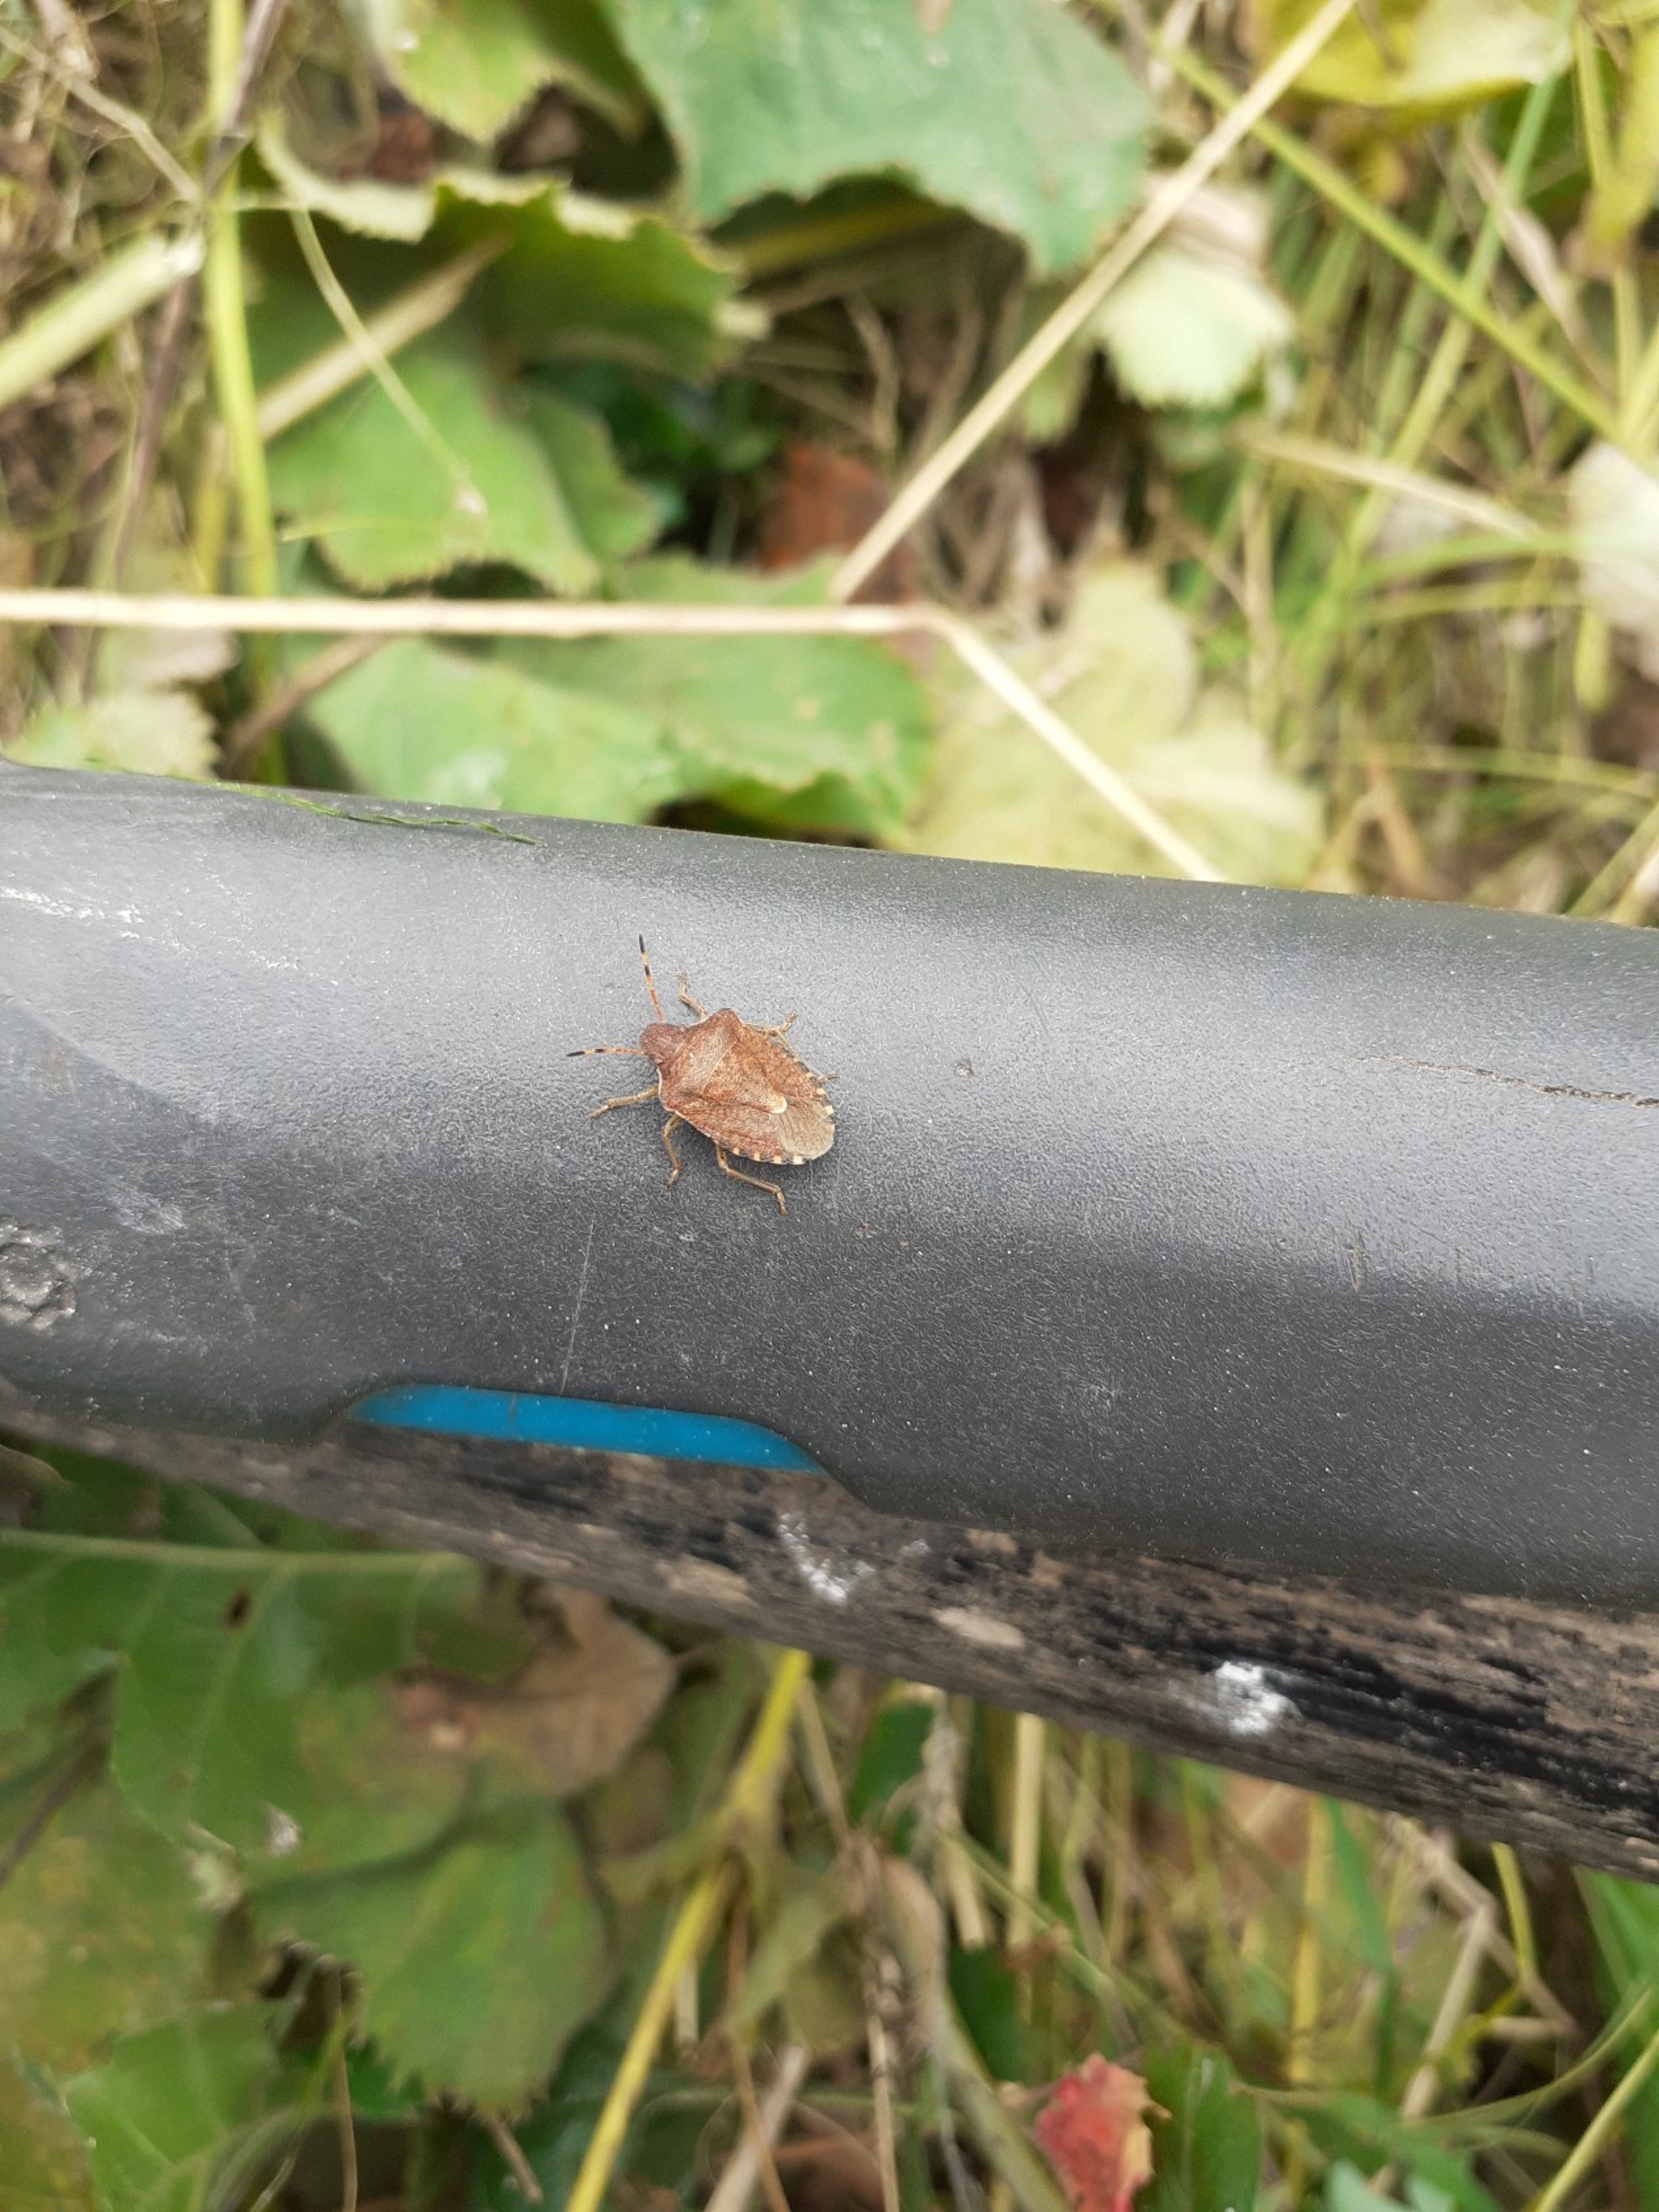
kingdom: Animalia
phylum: Arthropoda
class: Insecta
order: Hemiptera
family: Pentatomidae
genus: Holcostethus
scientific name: Holcostethus strictus
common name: Lille bærtæge
